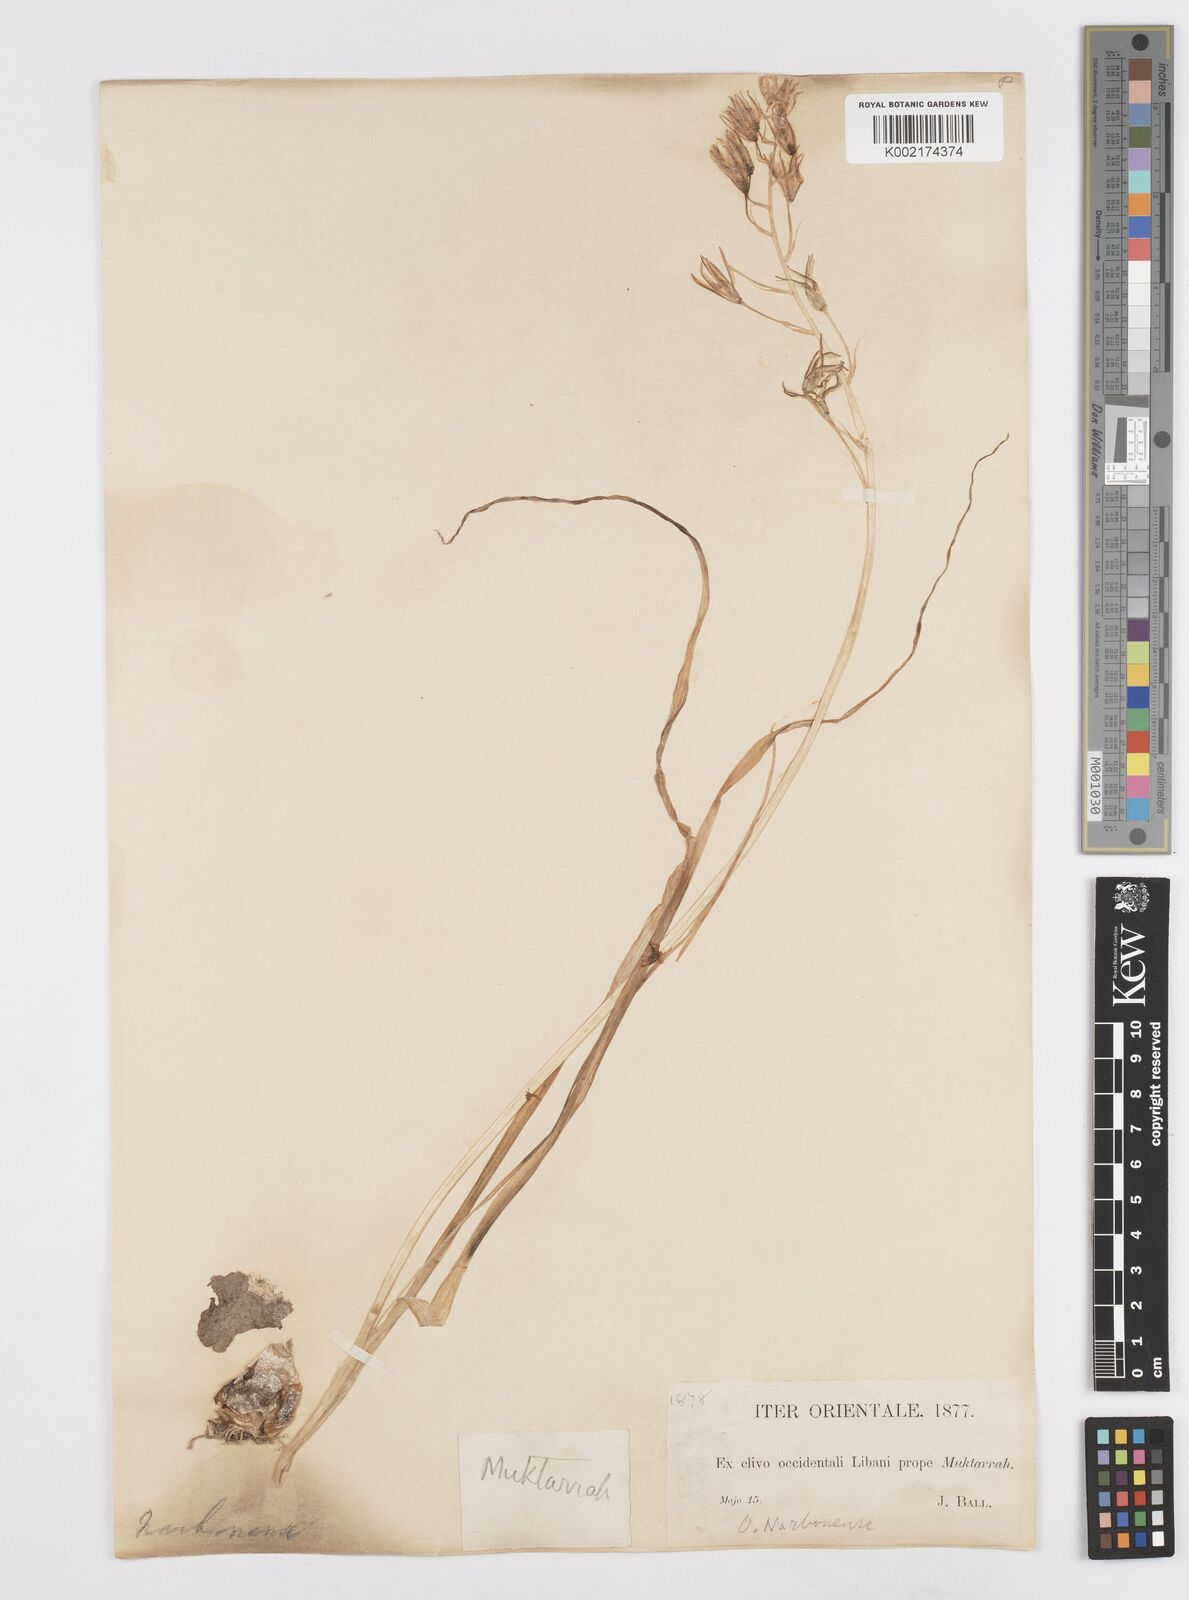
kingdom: Plantae
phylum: Tracheophyta
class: Liliopsida
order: Asparagales
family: Asparagaceae
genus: Ornithogalum
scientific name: Ornithogalum narbonense
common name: Bath-asparagus
